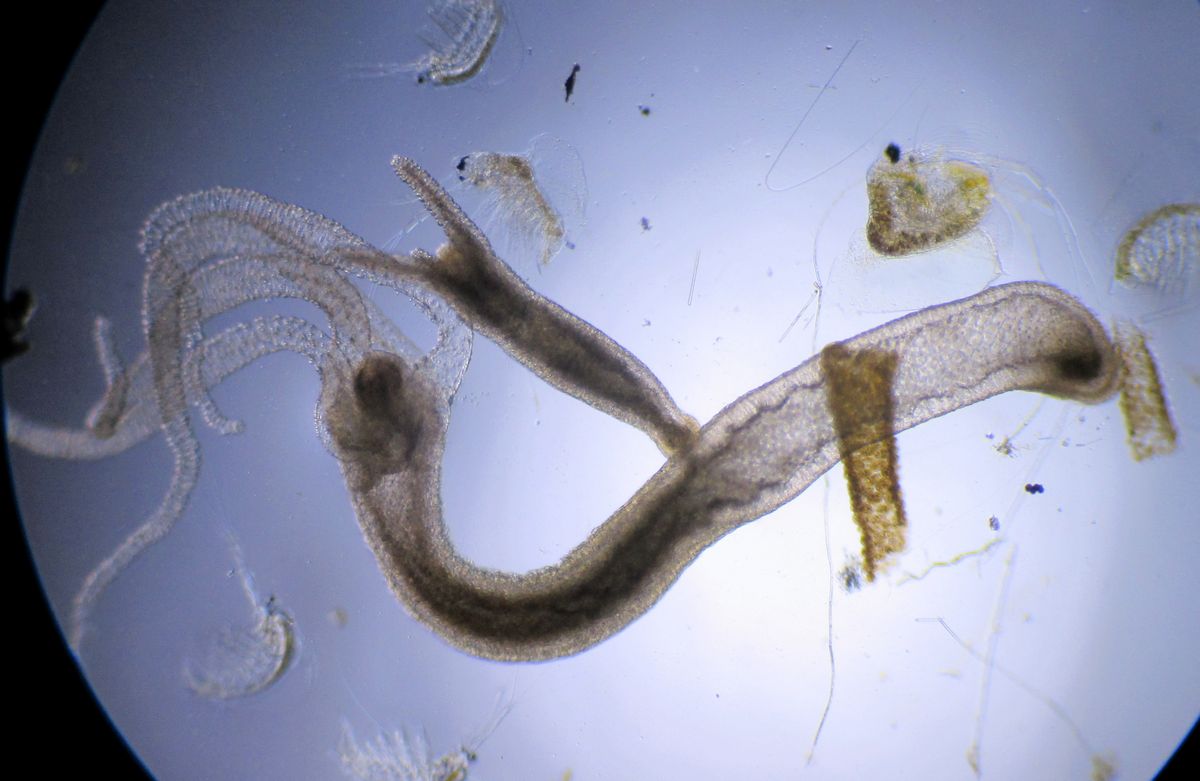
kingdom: Animalia
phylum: Cnidaria
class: Hydrozoa
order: Anthoathecata
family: Hydridae
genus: Hydra
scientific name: Hydra
